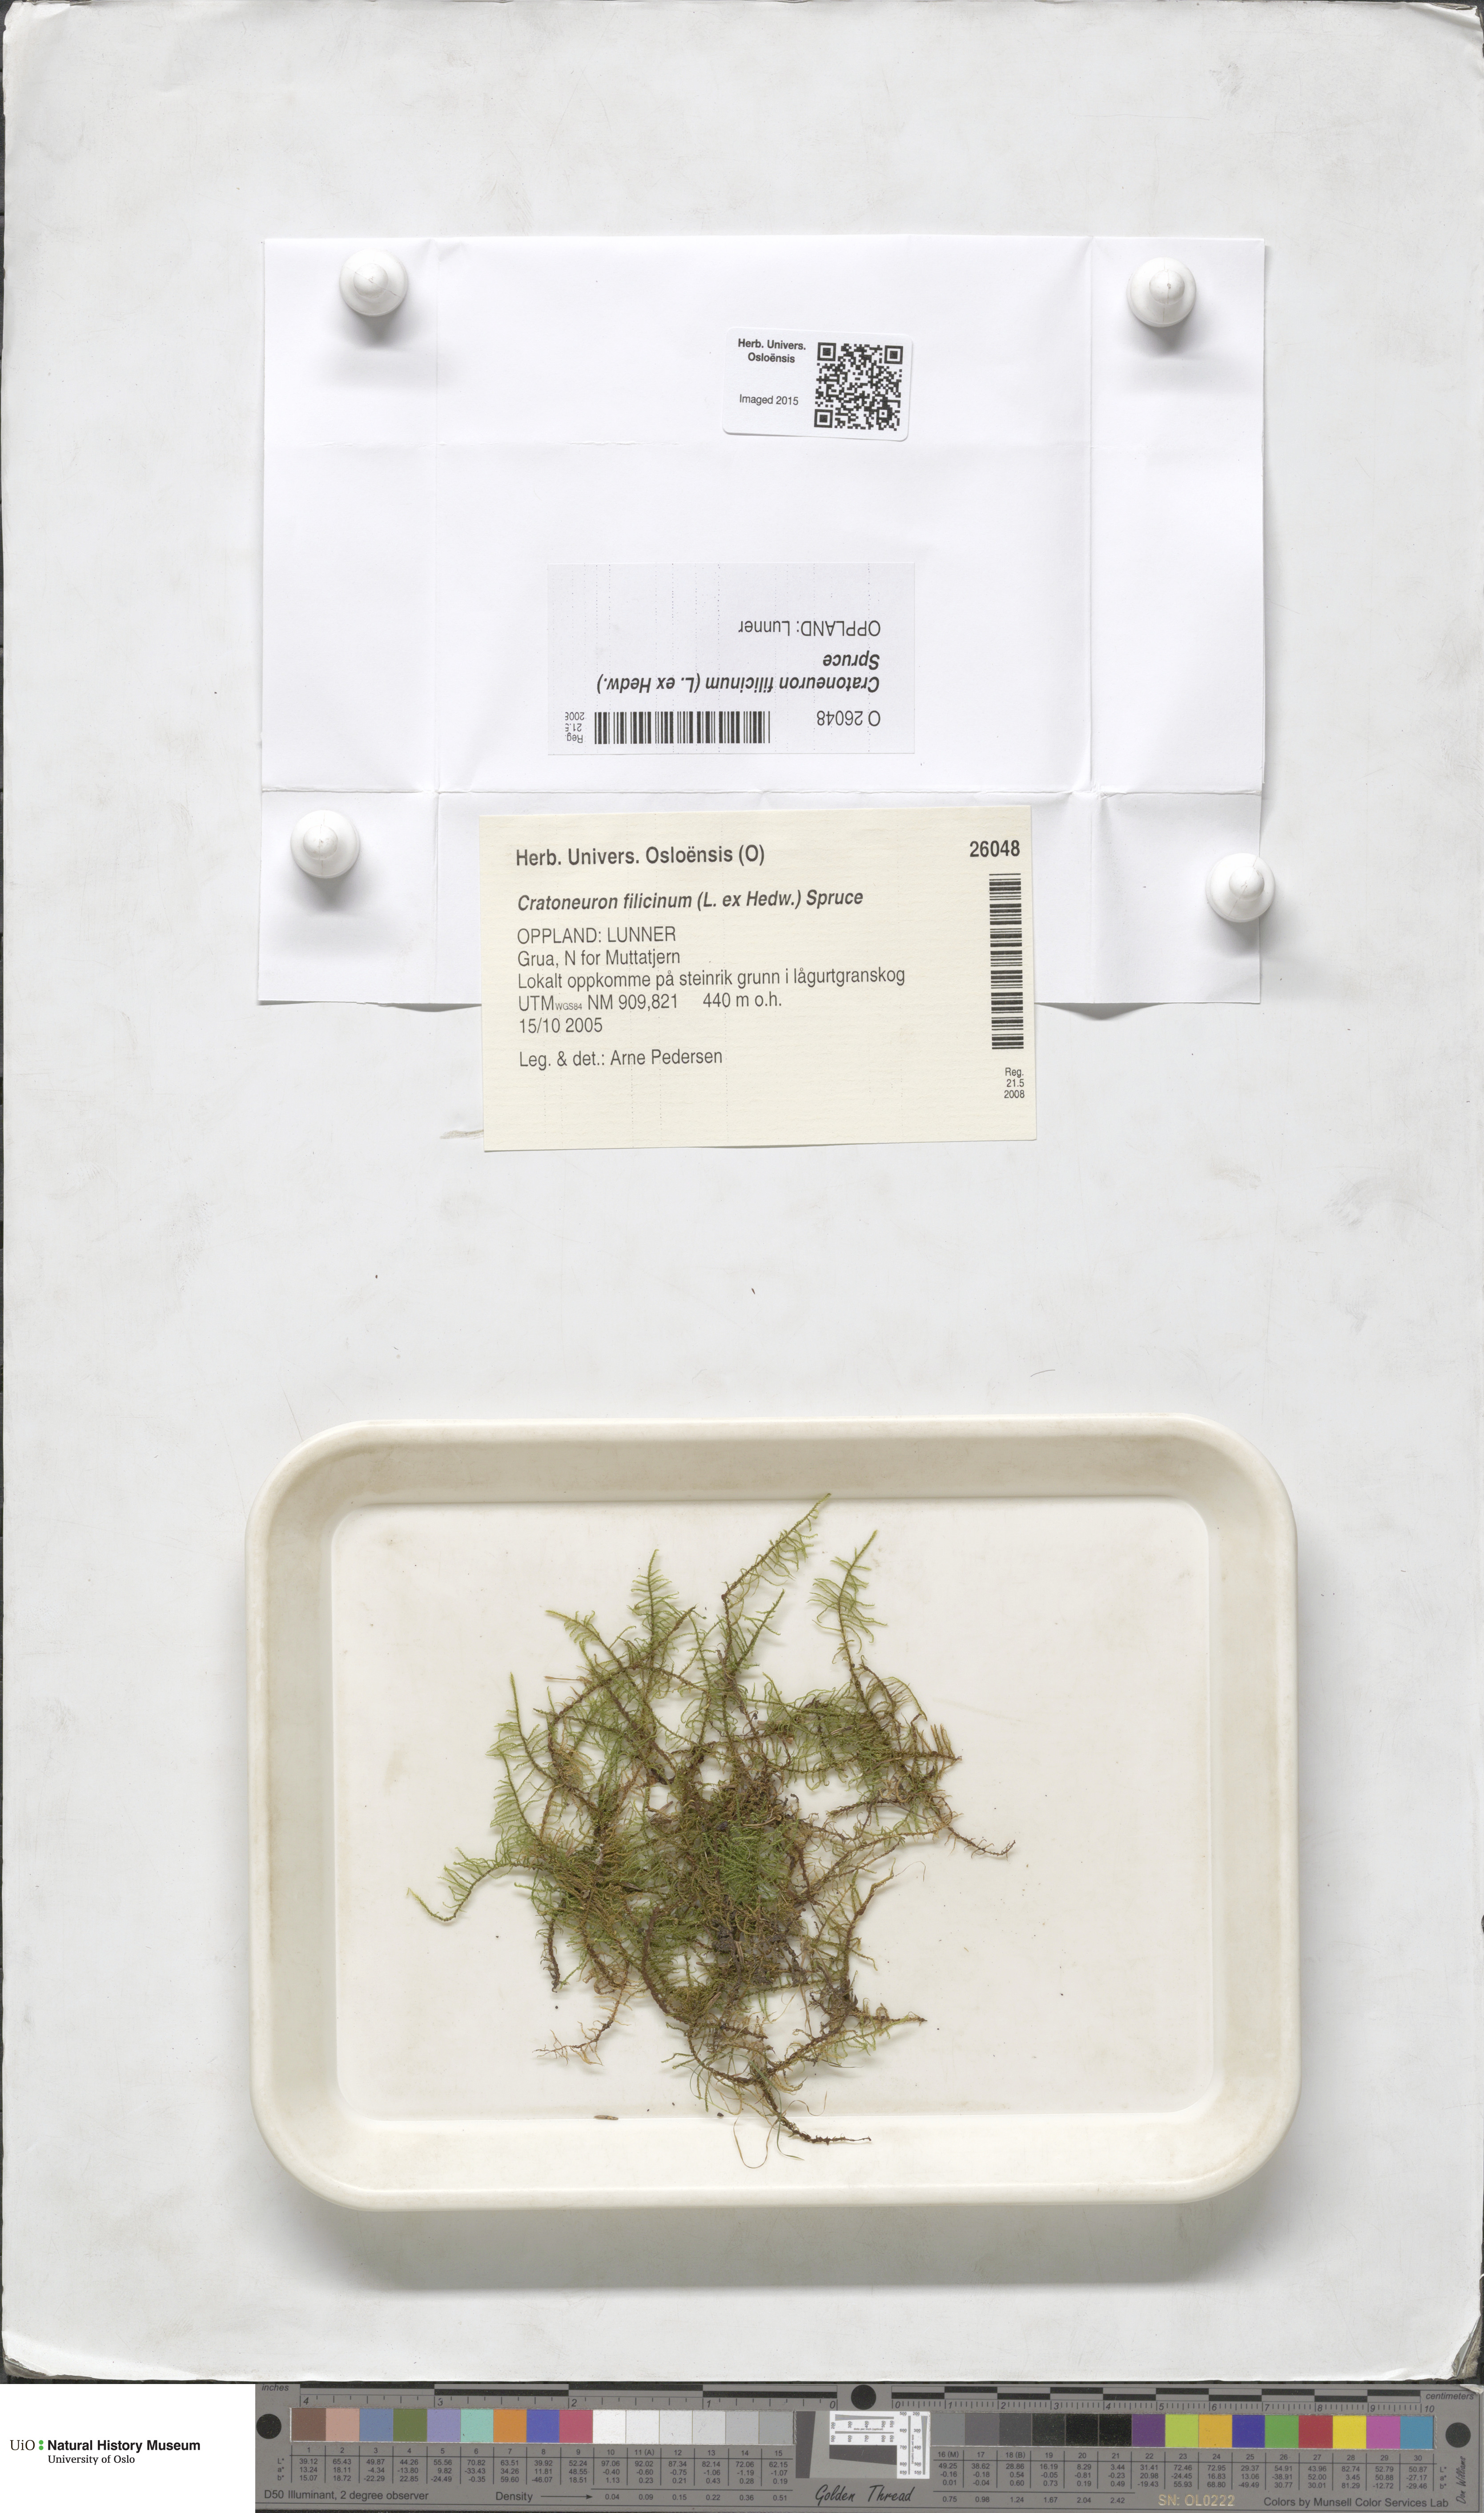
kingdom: Plantae
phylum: Bryophyta
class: Bryopsida
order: Hypnales
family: Amblystegiaceae
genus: Cratoneuron
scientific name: Cratoneuron filicinum
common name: Fern-leaved hook moss
